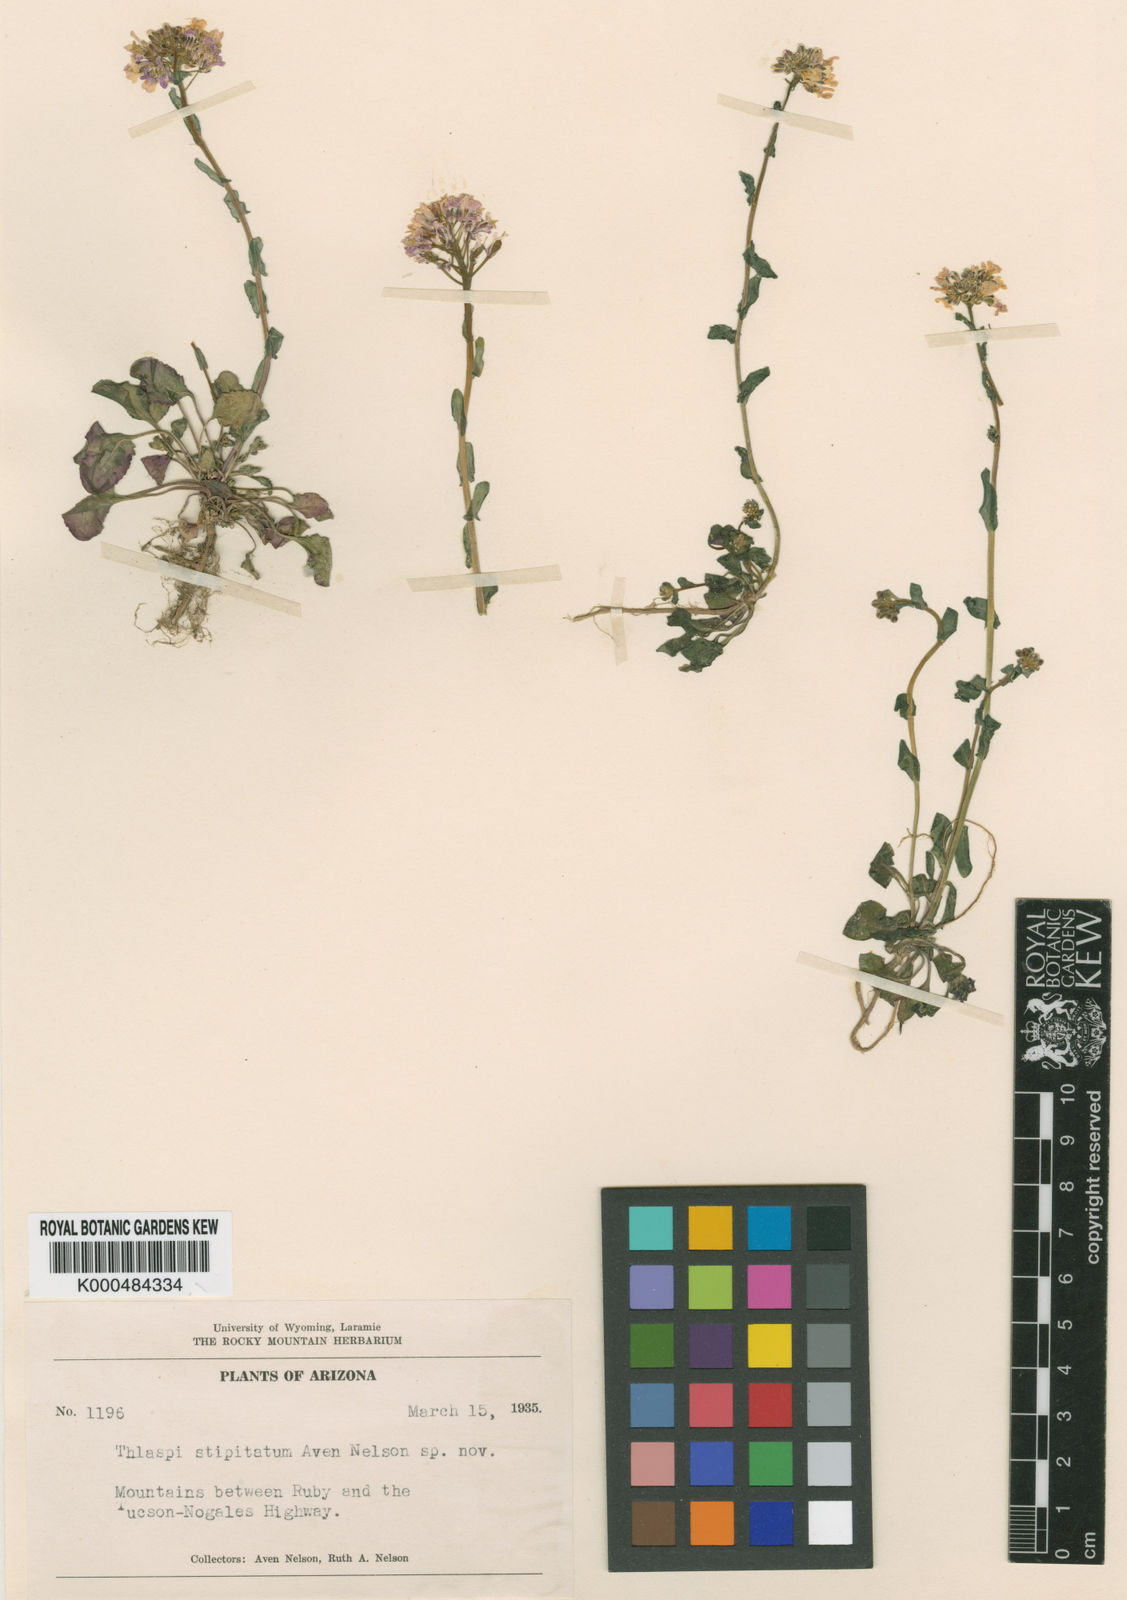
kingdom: Plantae
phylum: Tracheophyta
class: Magnoliopsida
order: Brassicales
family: Brassicaceae
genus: Noccaea
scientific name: Noccaea fendleri
